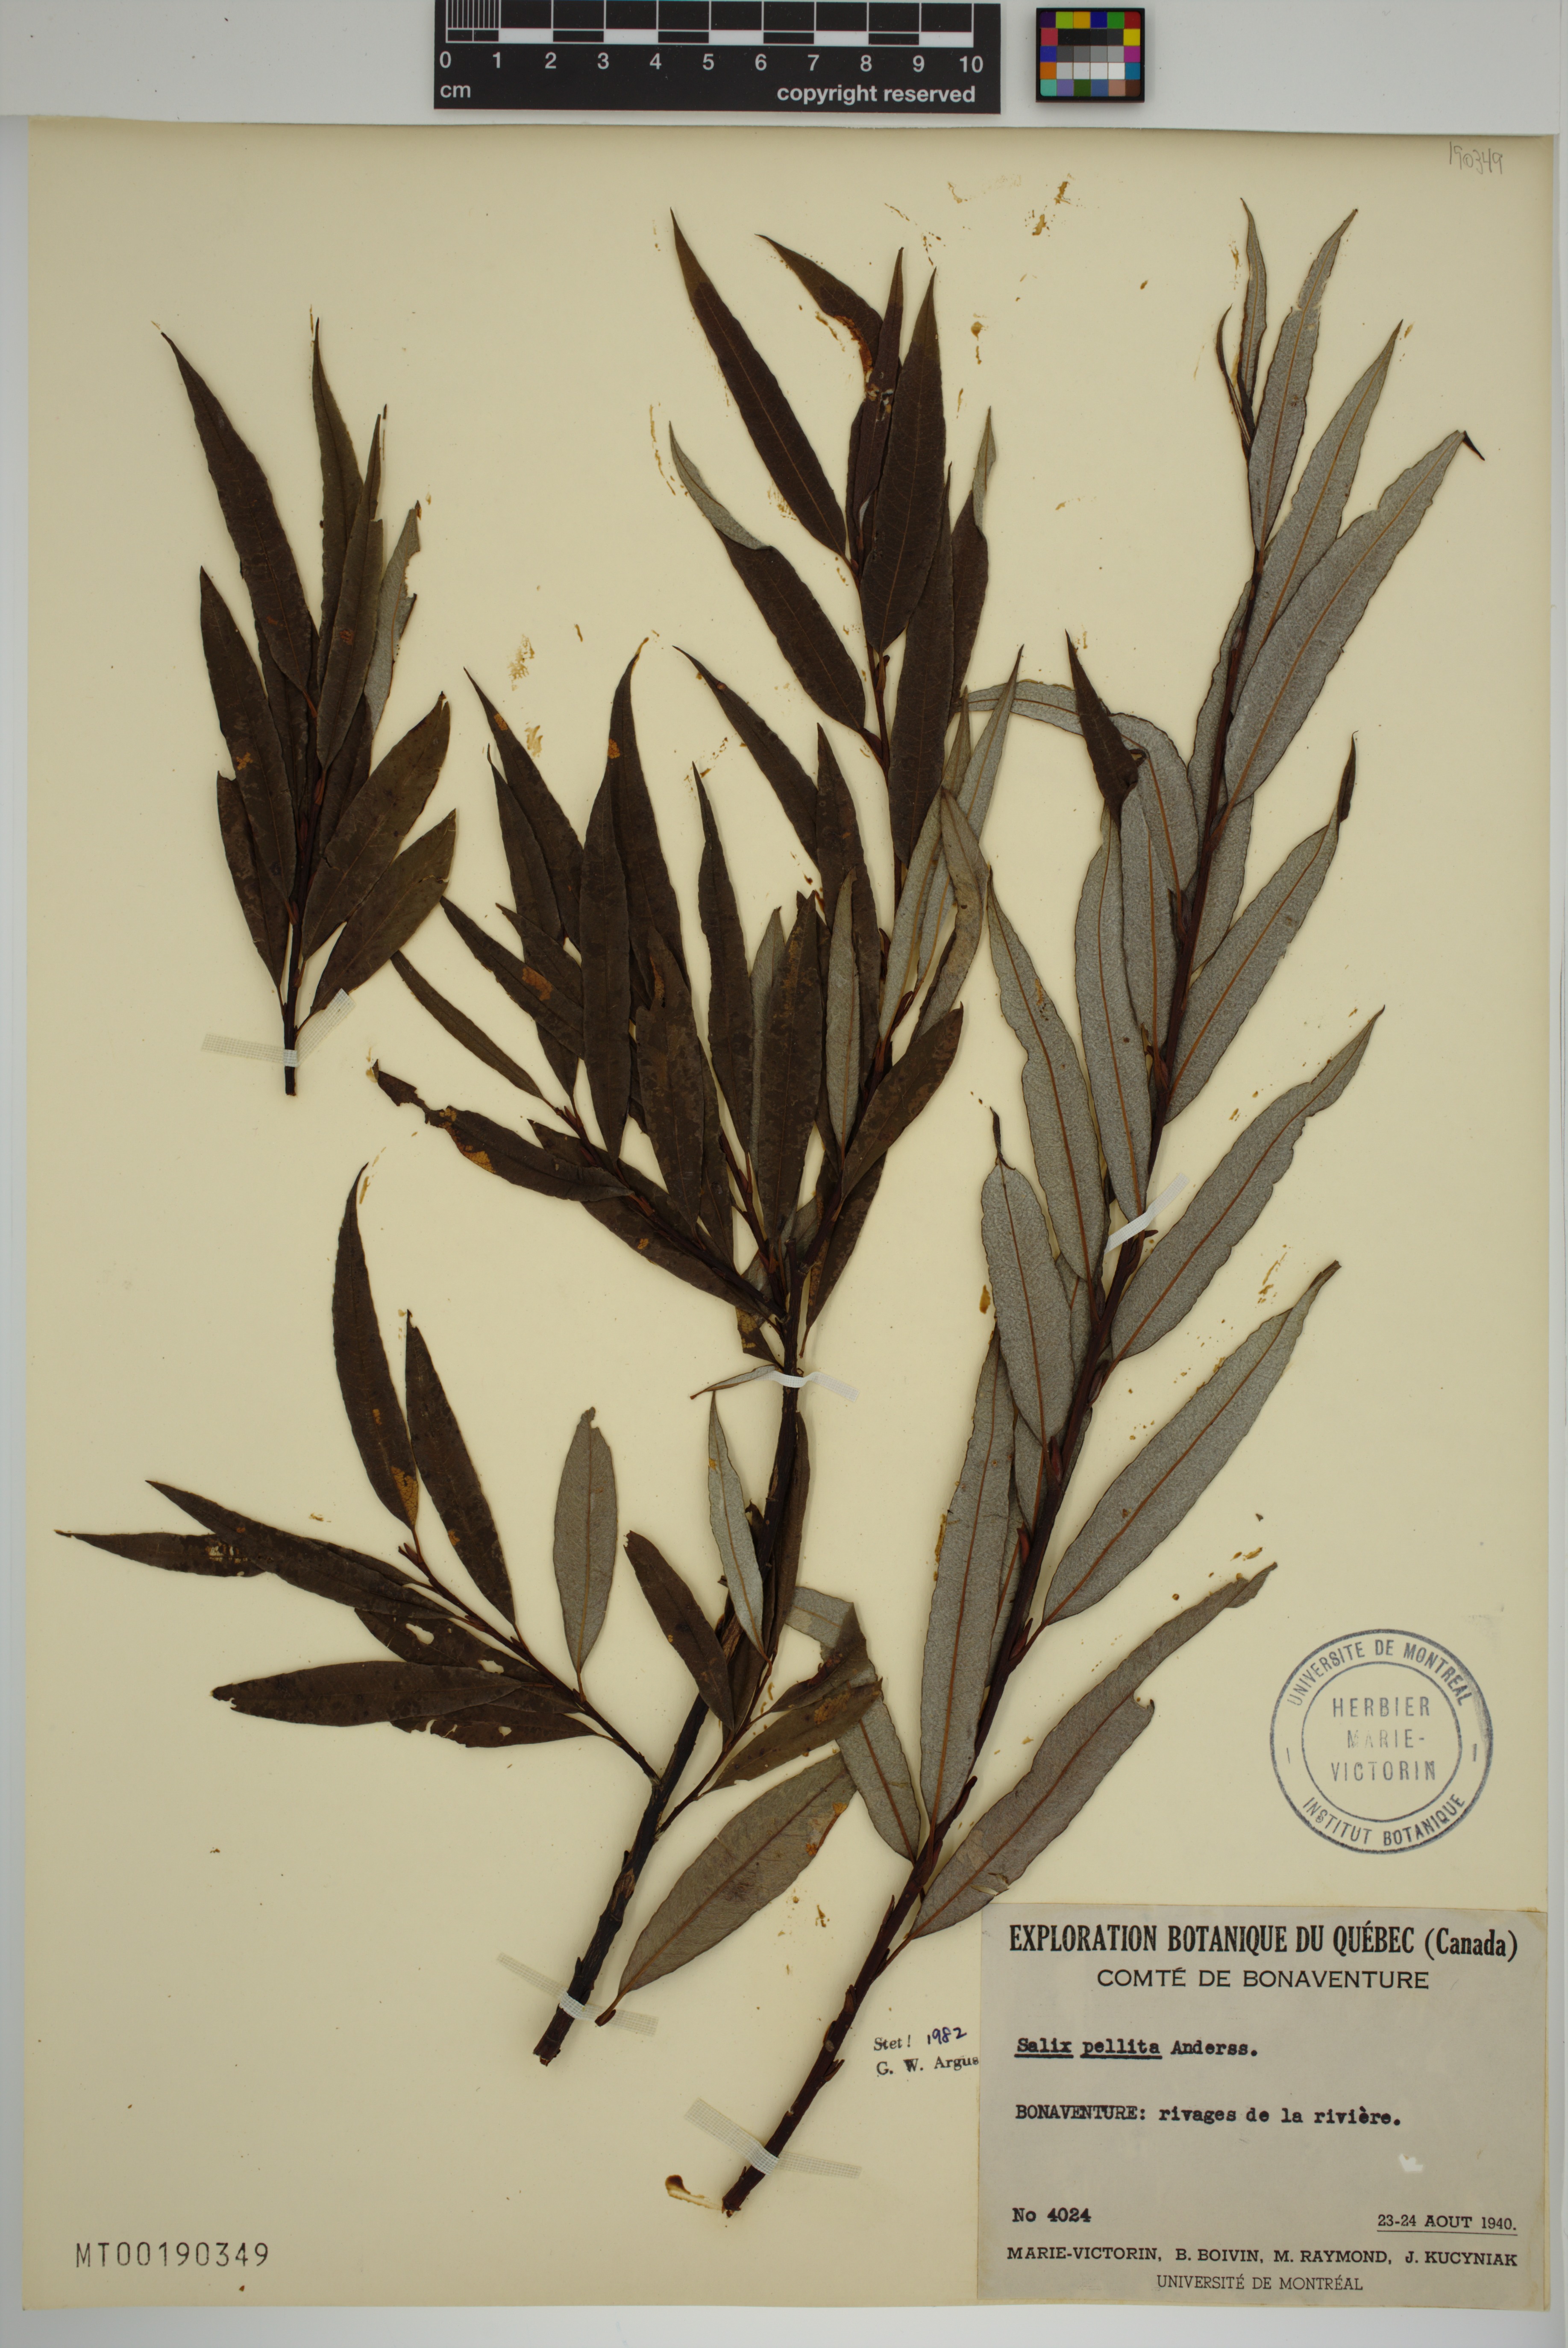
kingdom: Plantae
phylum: Tracheophyta
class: Magnoliopsida
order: Malpighiales
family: Salicaceae
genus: Salix
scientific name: Salix pellita
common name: Satiny willow
